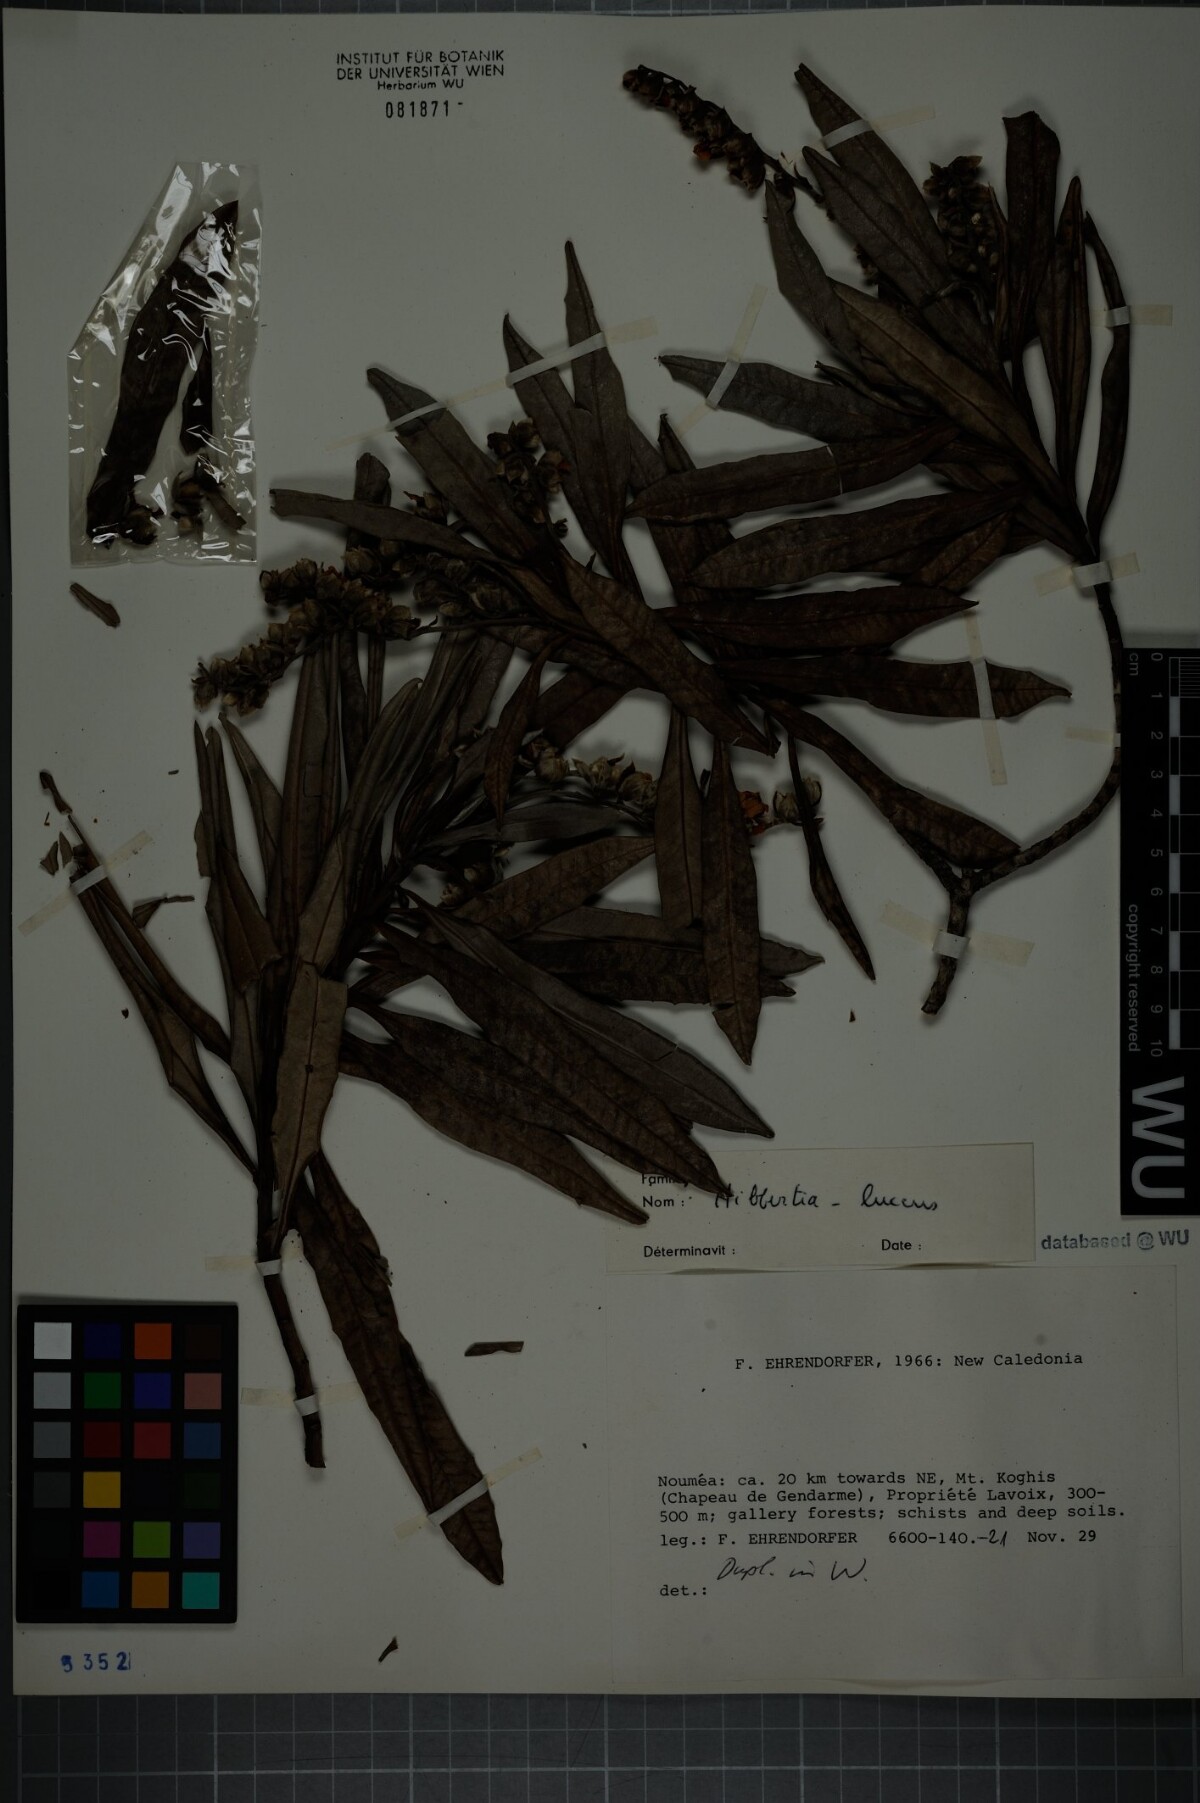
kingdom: Plantae
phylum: Tracheophyta
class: Magnoliopsida
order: Dilleniales
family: Dilleniaceae
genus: Hibbertia
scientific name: Hibbertia lucens
